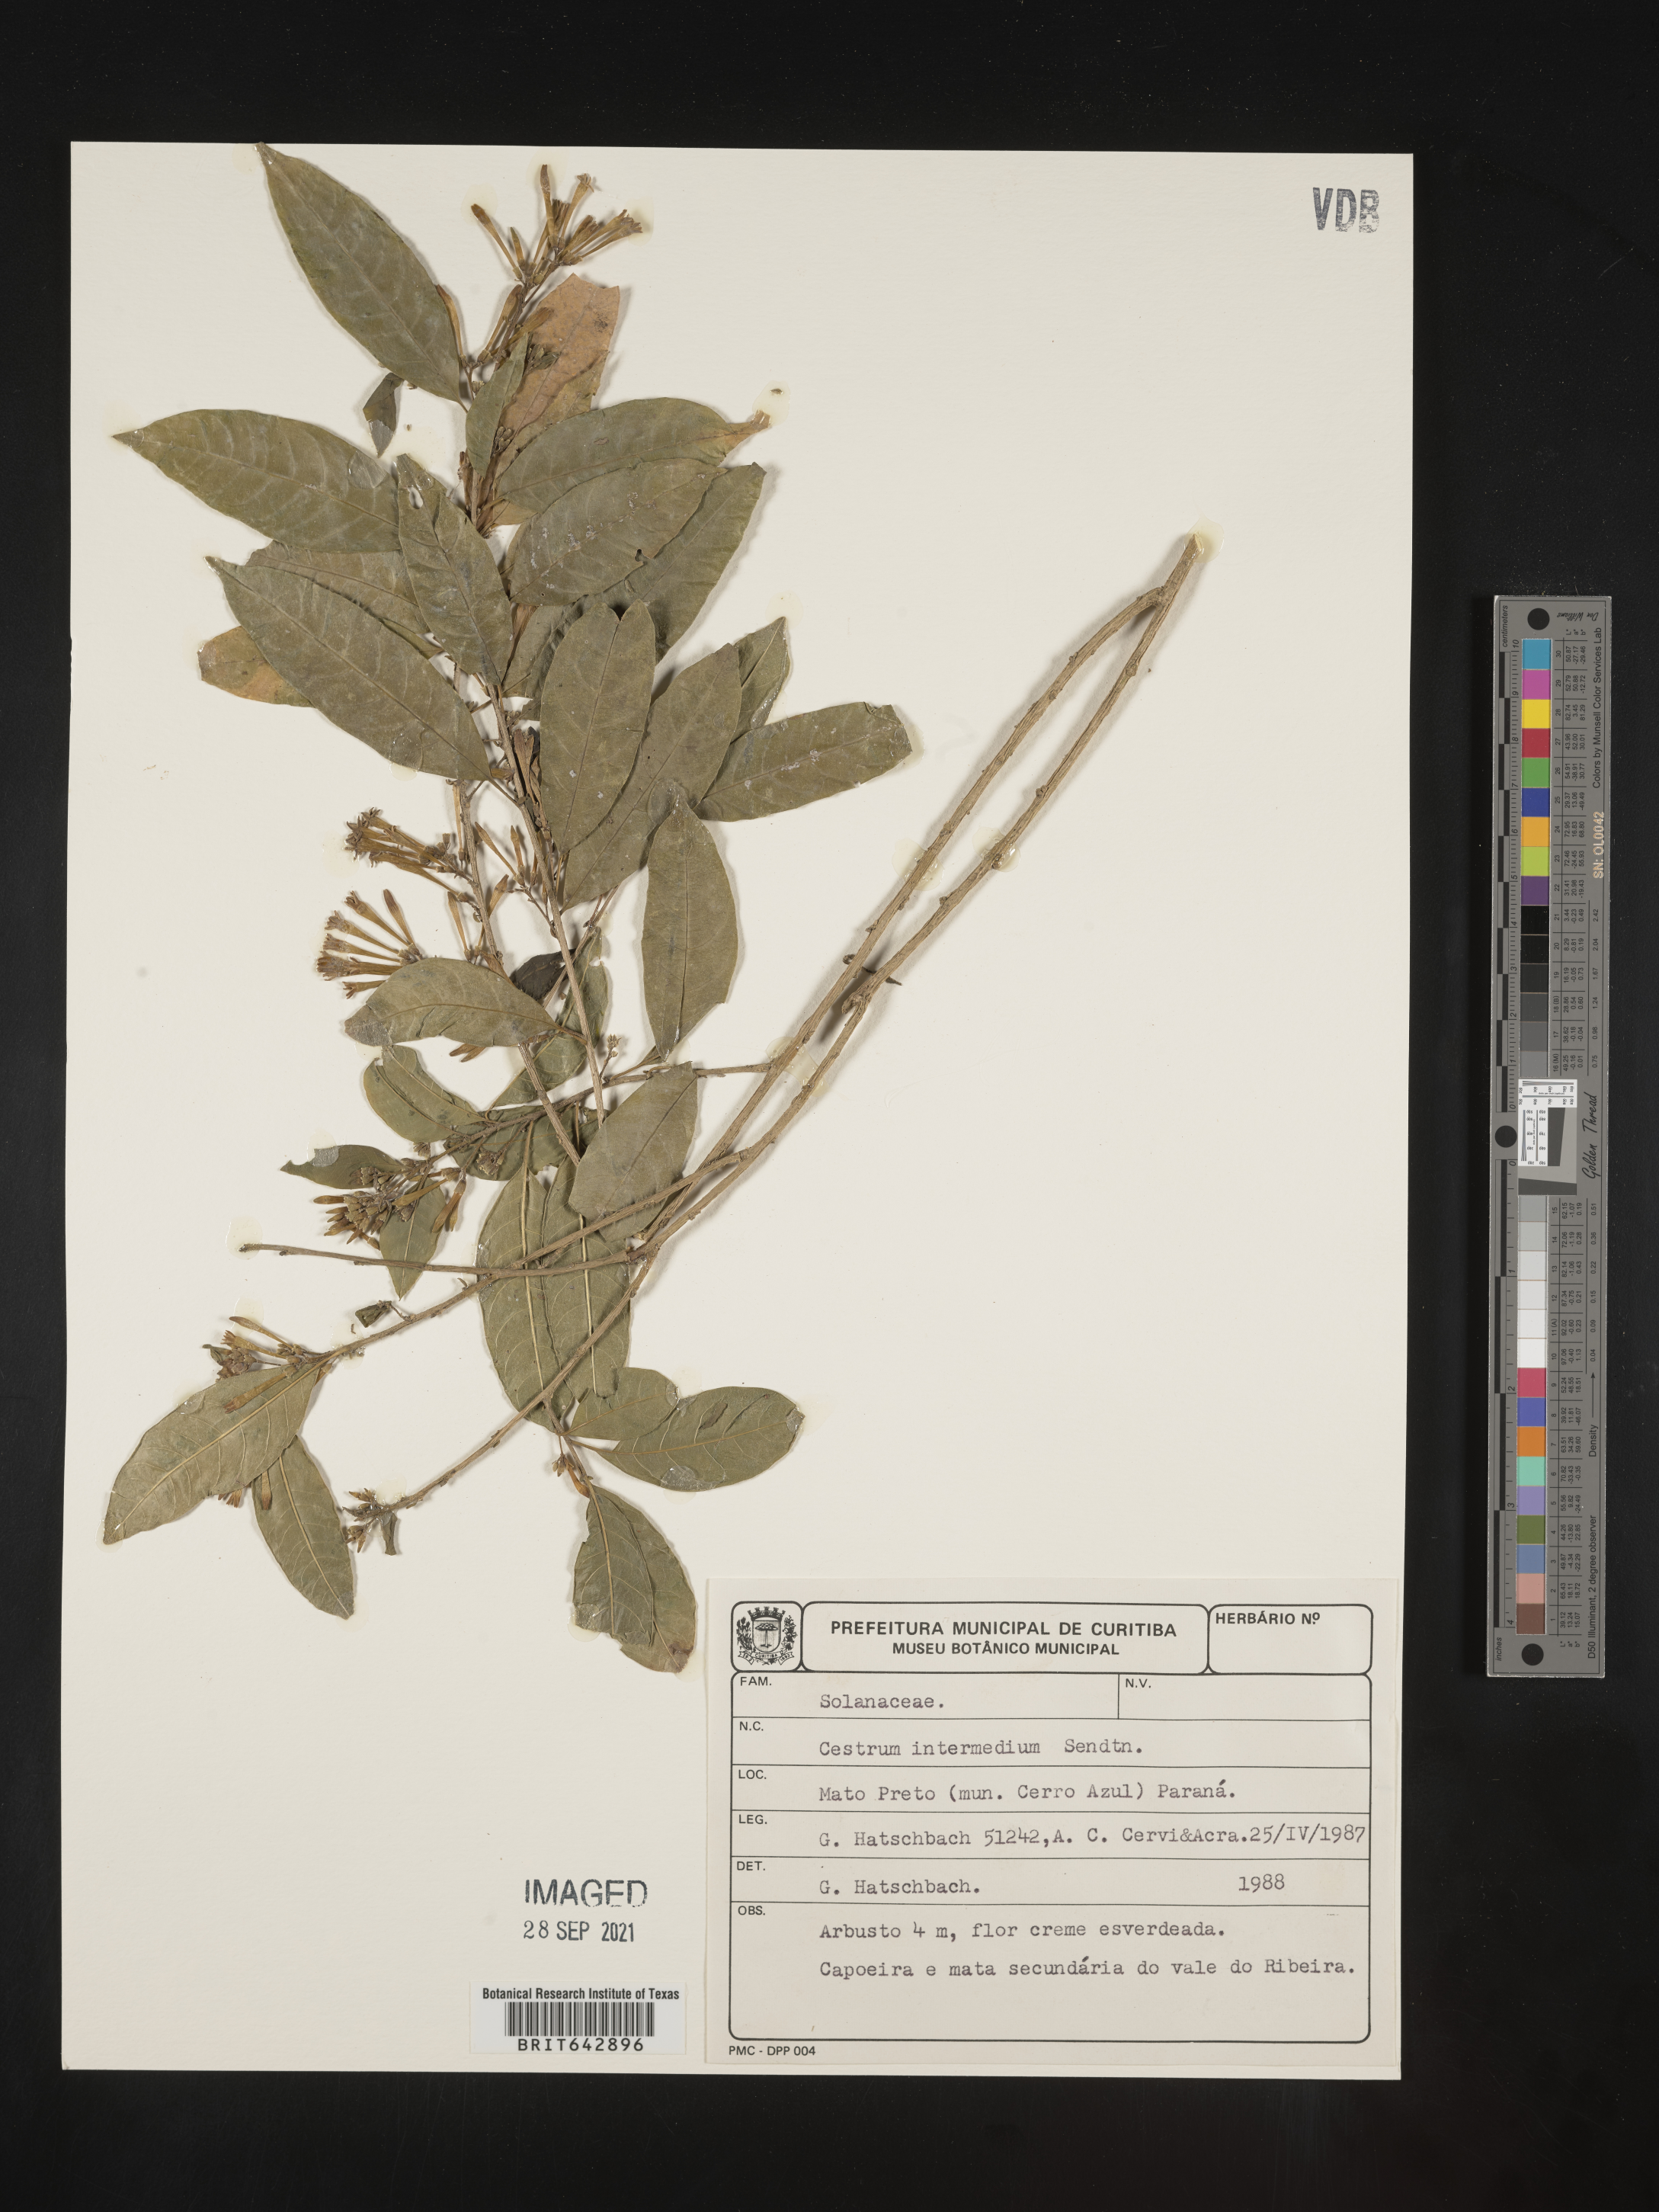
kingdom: Plantae
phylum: Tracheophyta
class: Magnoliopsida
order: Solanales
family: Solanaceae
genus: Cestrum
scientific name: Cestrum
